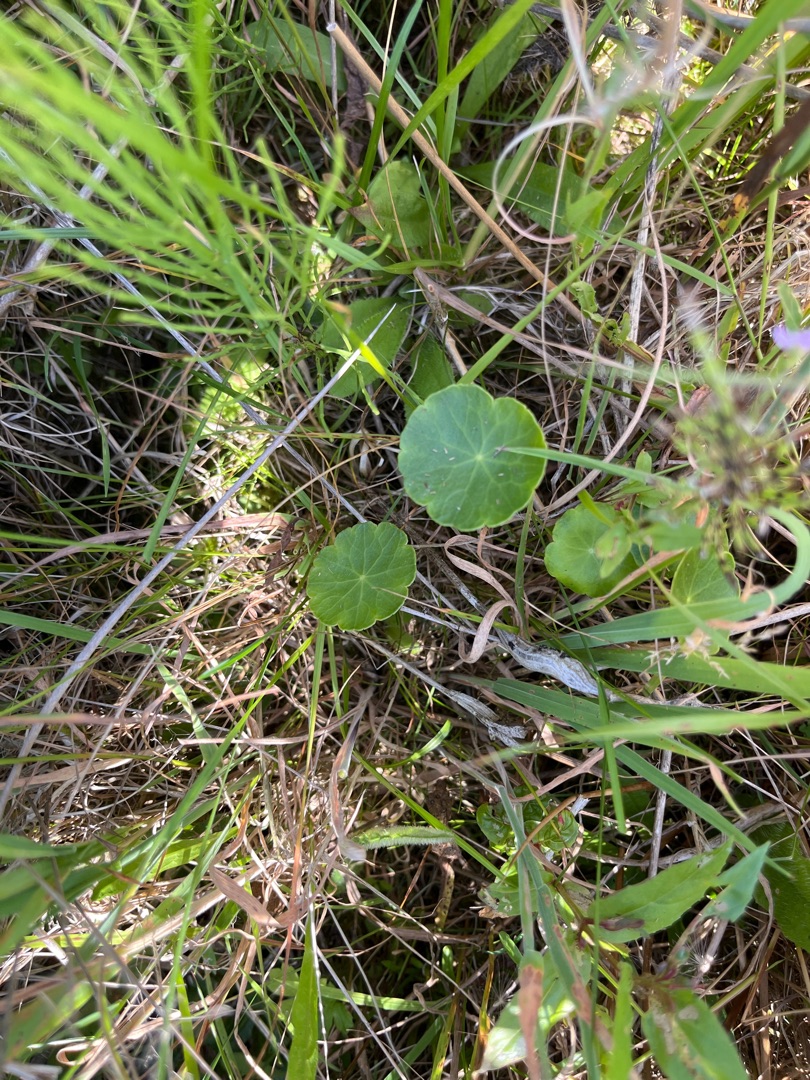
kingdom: Plantae
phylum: Tracheophyta
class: Magnoliopsida
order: Apiales
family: Araliaceae
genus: Hydrocotyle
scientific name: Hydrocotyle vulgaris
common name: Vandnavle
